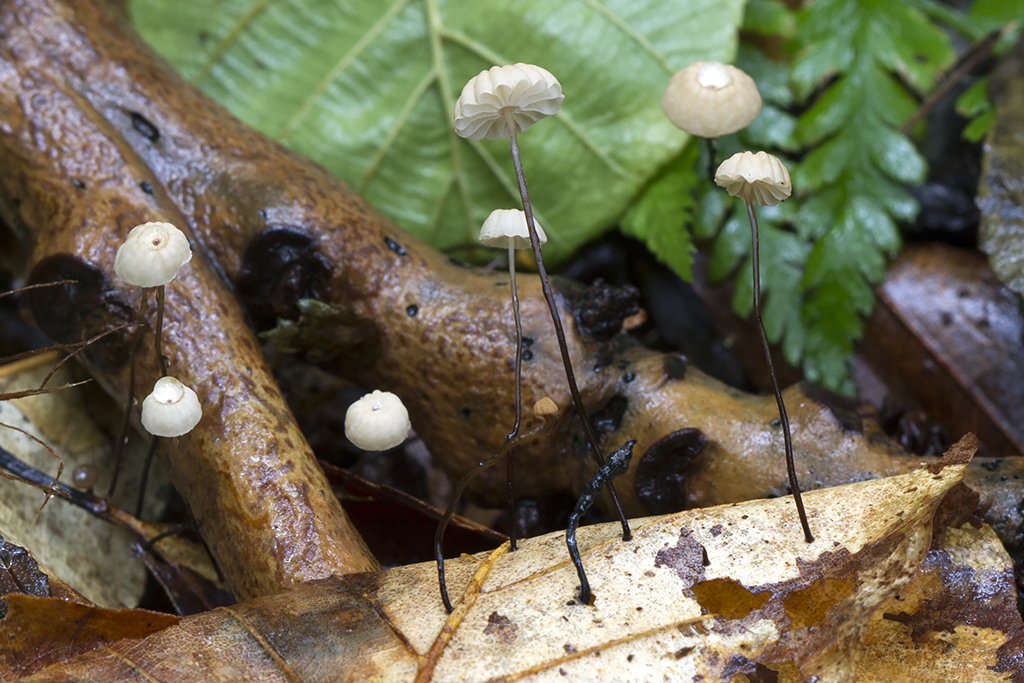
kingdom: Fungi
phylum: Basidiomycota
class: Agaricomycetes
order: Agaricales
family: Marasmiaceae
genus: Marasmius
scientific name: Marasmius bulliardii
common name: furet bruskhat
